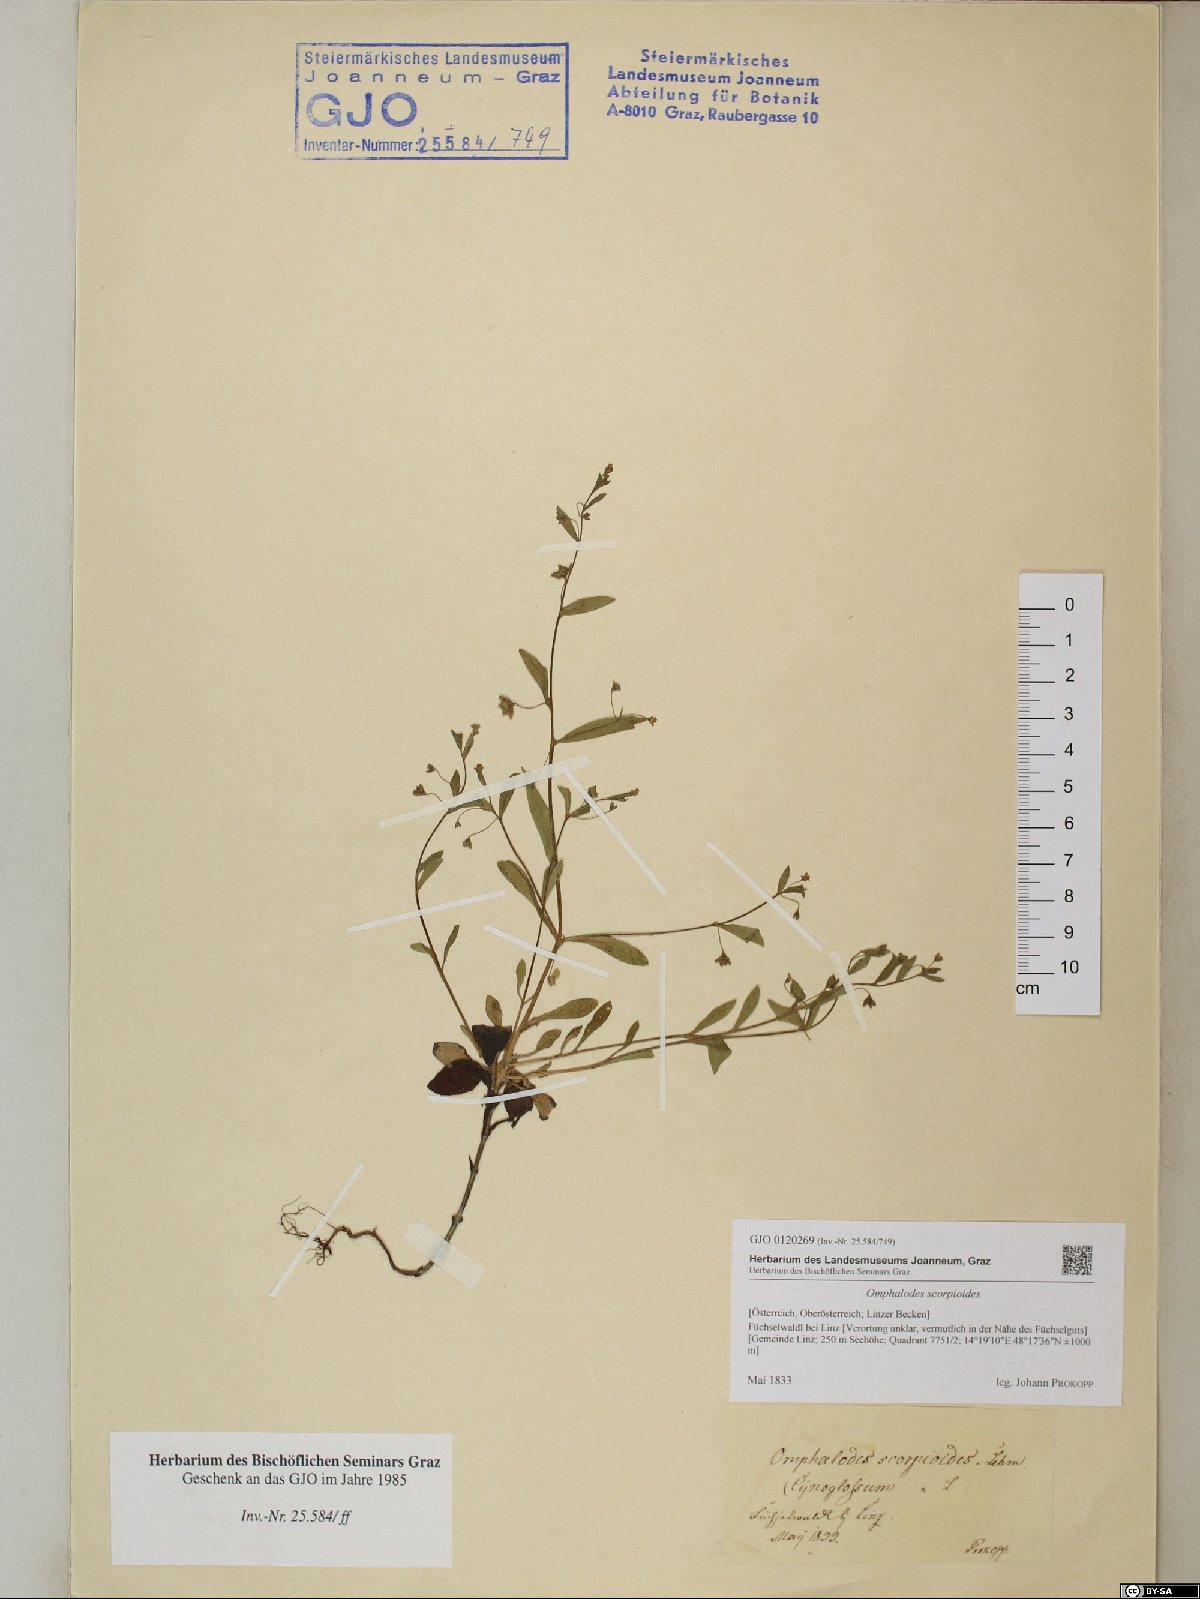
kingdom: Plantae
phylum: Tracheophyta
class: Magnoliopsida
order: Boraginales
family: Boraginaceae
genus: Memoremea
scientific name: Memoremea scorpioides
